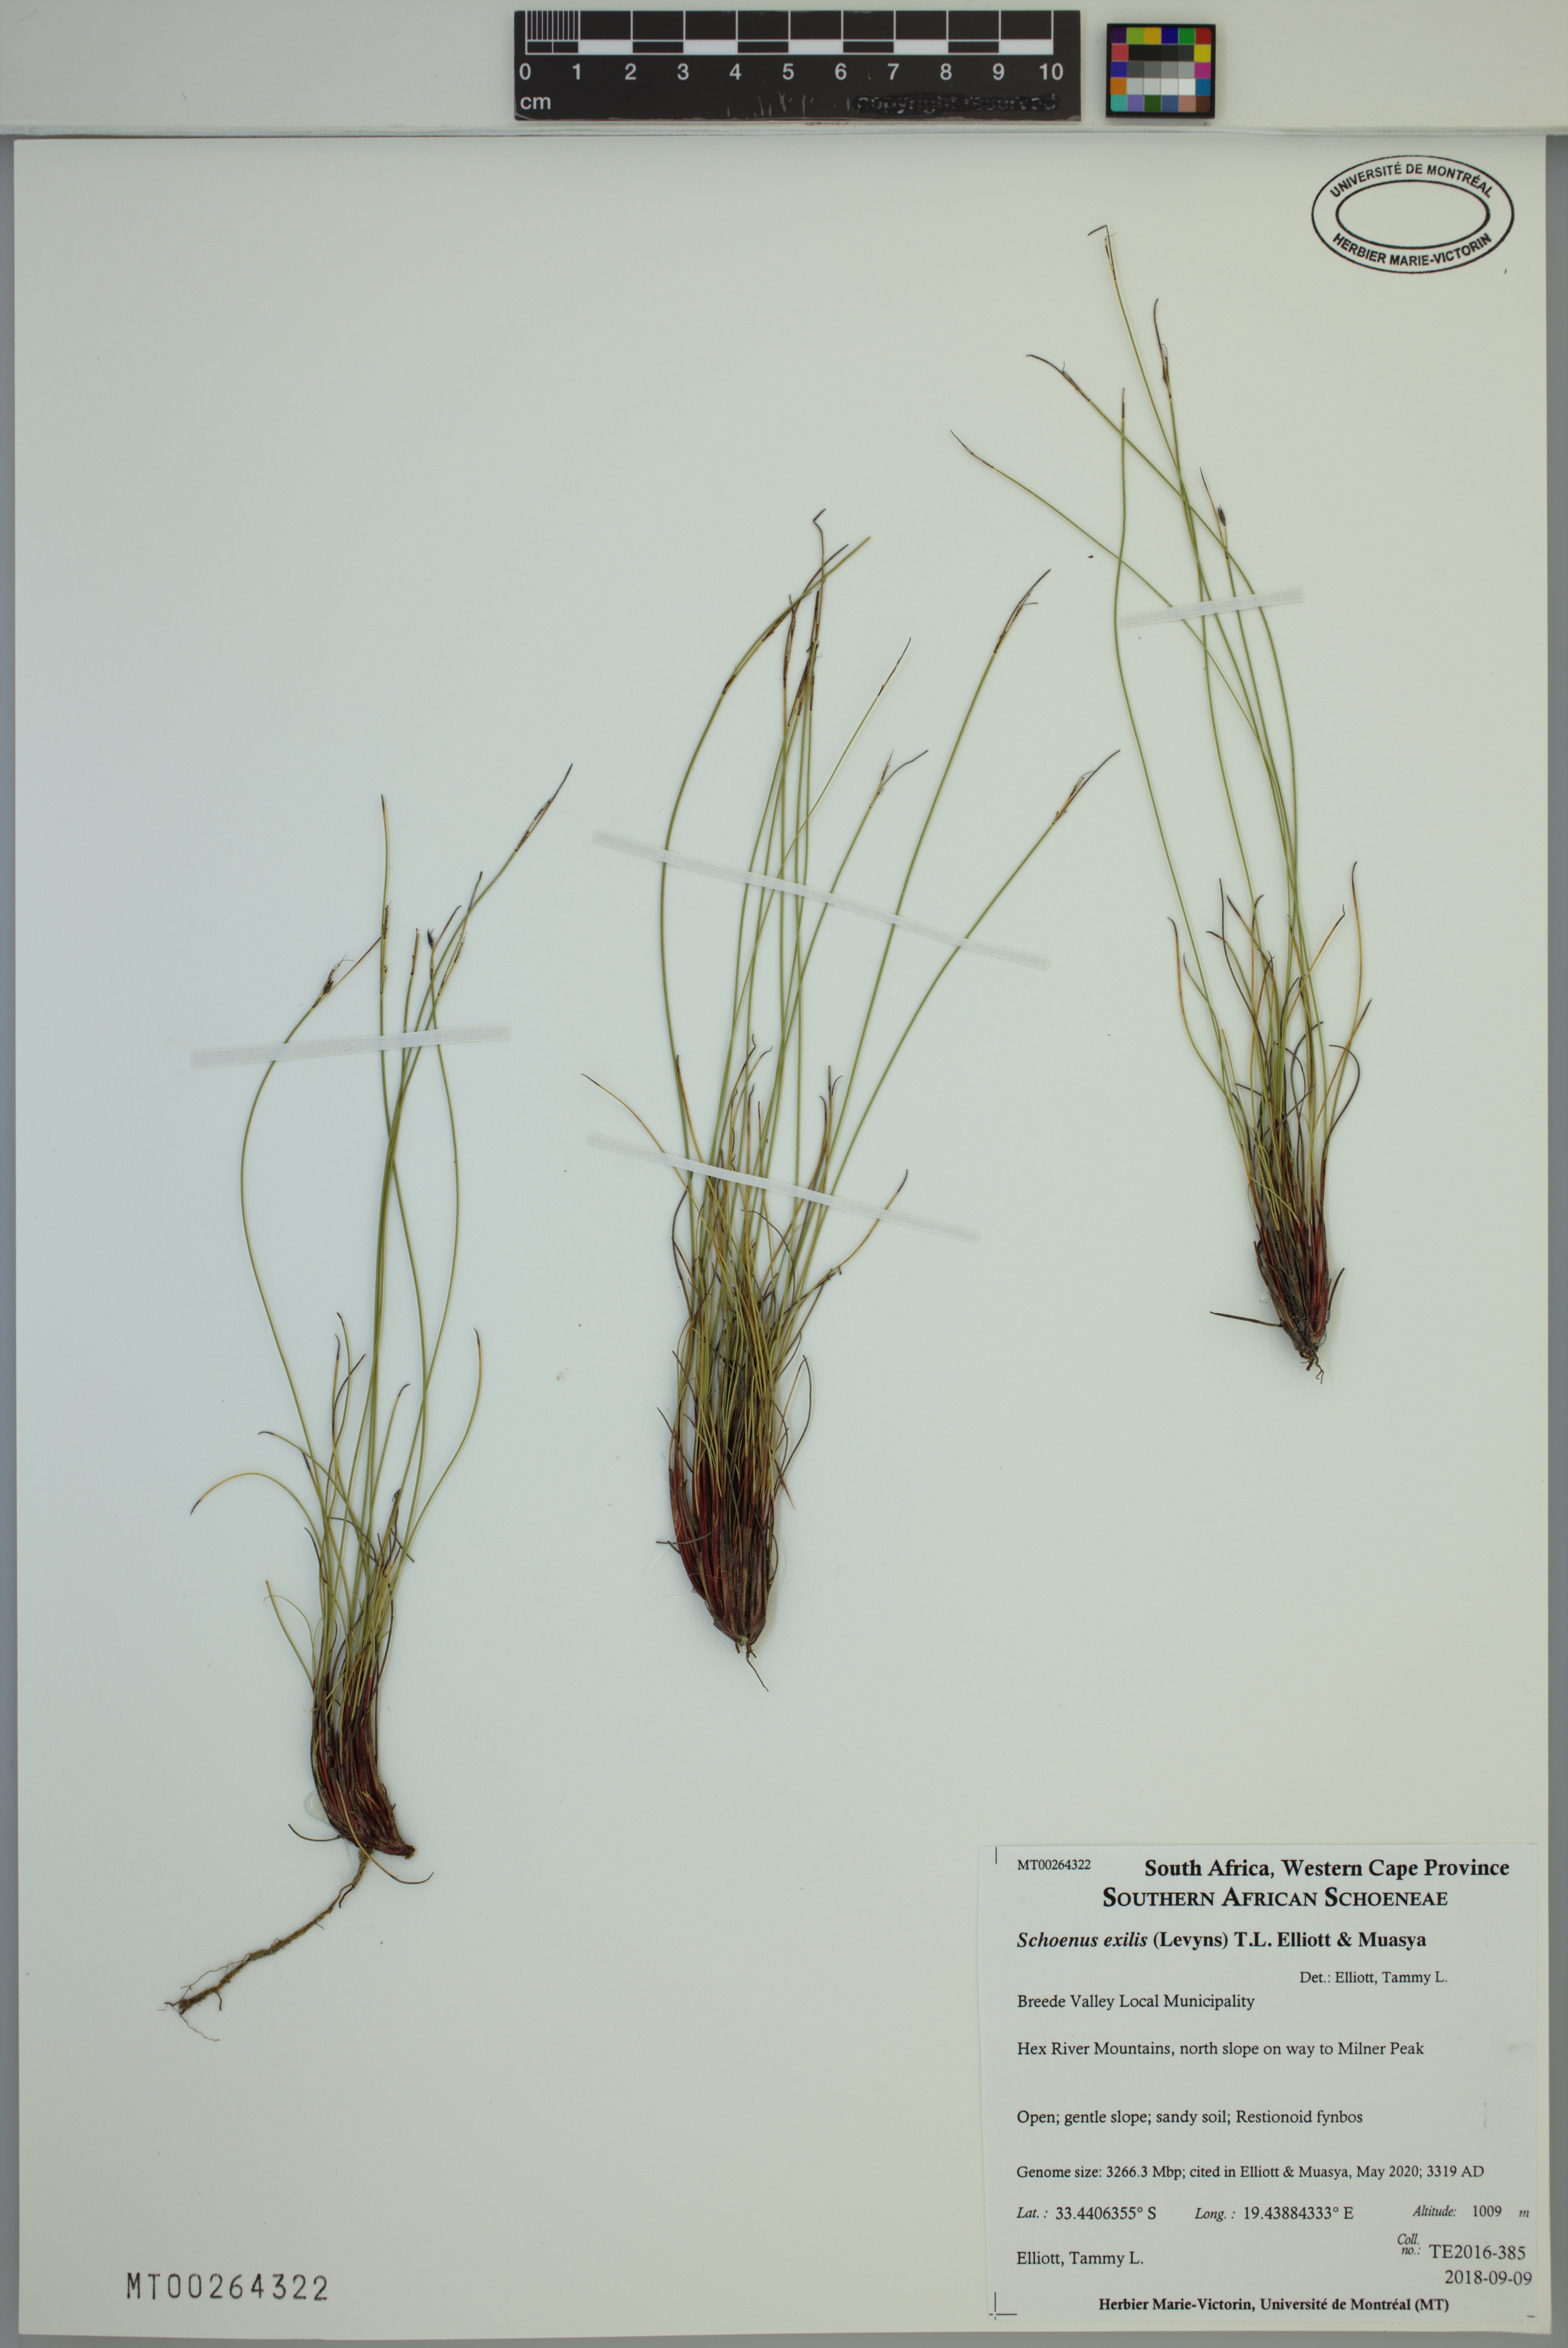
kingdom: Plantae
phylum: Tracheophyta
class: Liliopsida
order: Poales
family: Cyperaceae
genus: Schoenus
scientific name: Schoenus exilis
